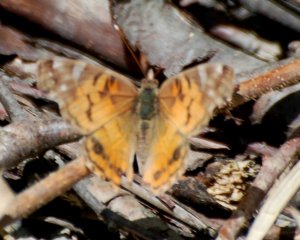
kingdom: Animalia
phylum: Arthropoda
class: Insecta
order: Lepidoptera
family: Nymphalidae
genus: Vanessa
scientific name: Vanessa cardui
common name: Painted Lady
